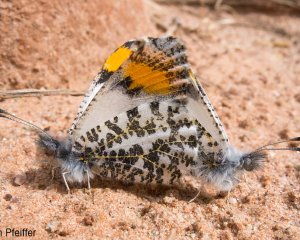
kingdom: Animalia
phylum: Arthropoda
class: Insecta
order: Lepidoptera
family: Pieridae
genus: Anthocharis
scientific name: Anthocharis cethura
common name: Desert Orangetip
